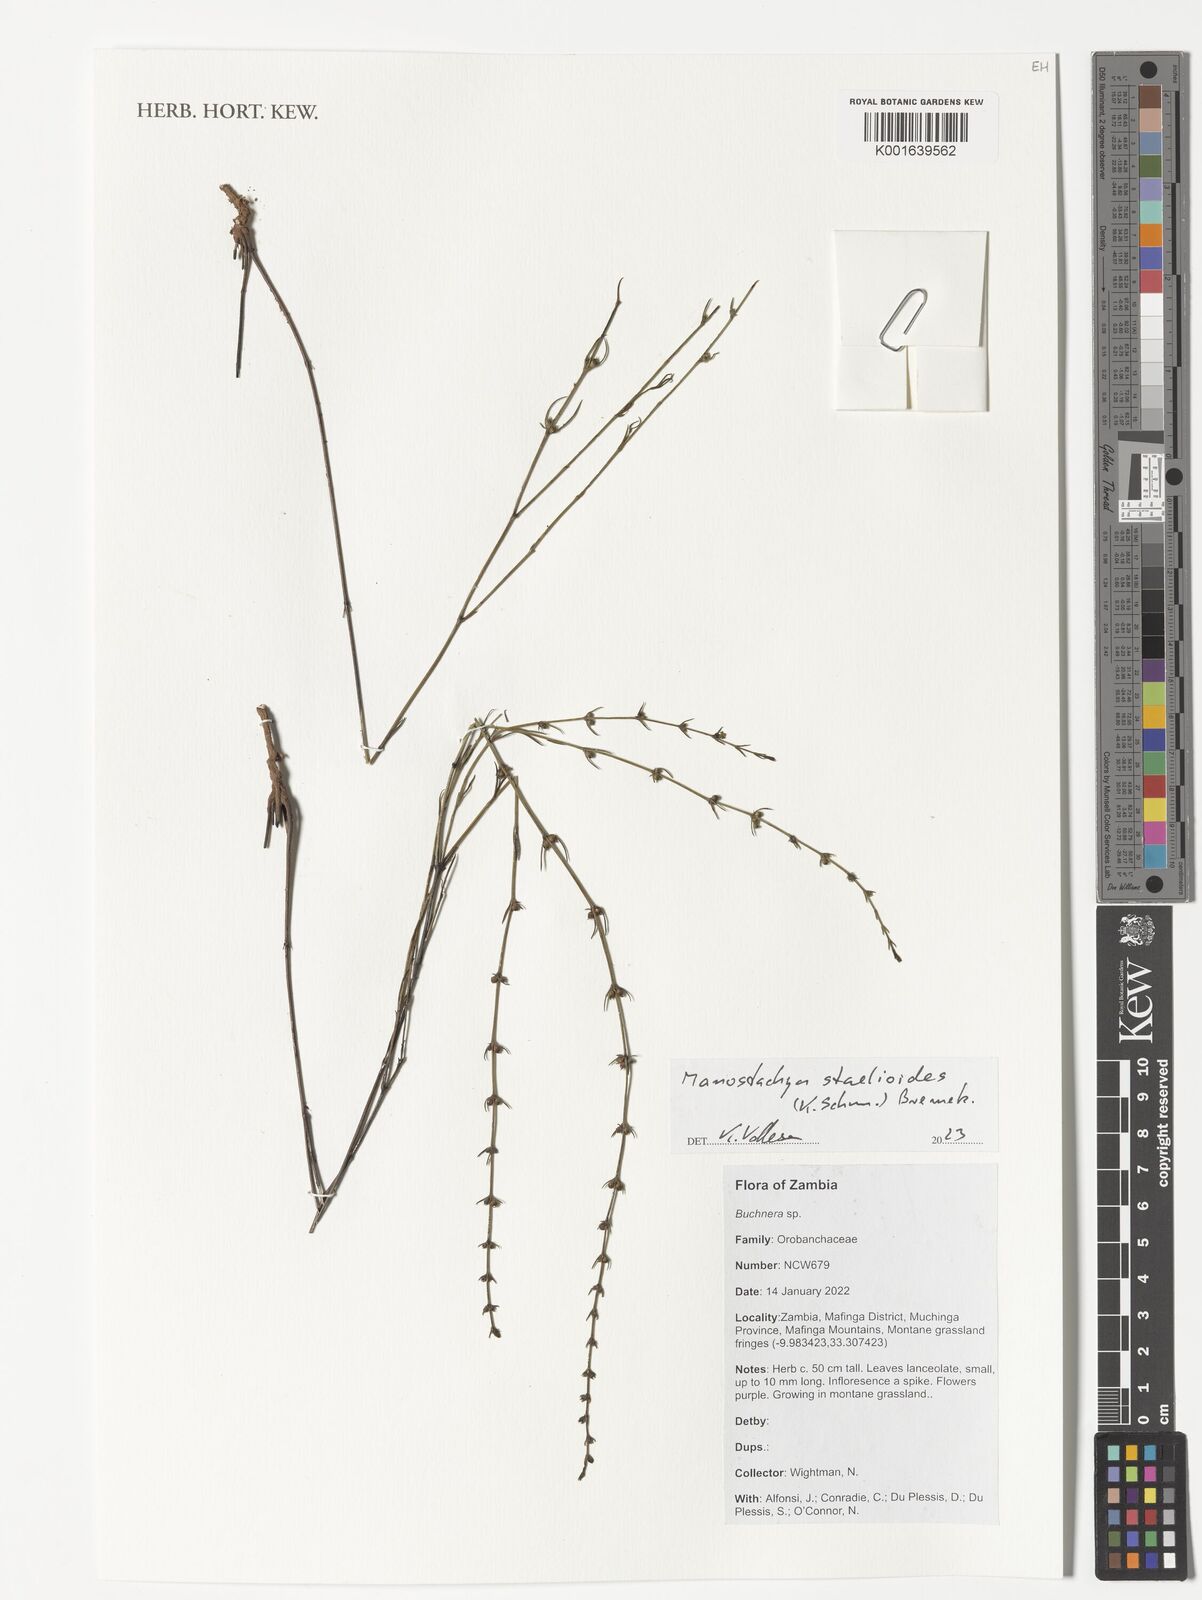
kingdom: Plantae
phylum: Tracheophyta
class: Magnoliopsida
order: Gentianales
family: Rubiaceae
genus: Manostachya
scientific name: Manostachya staelioides
